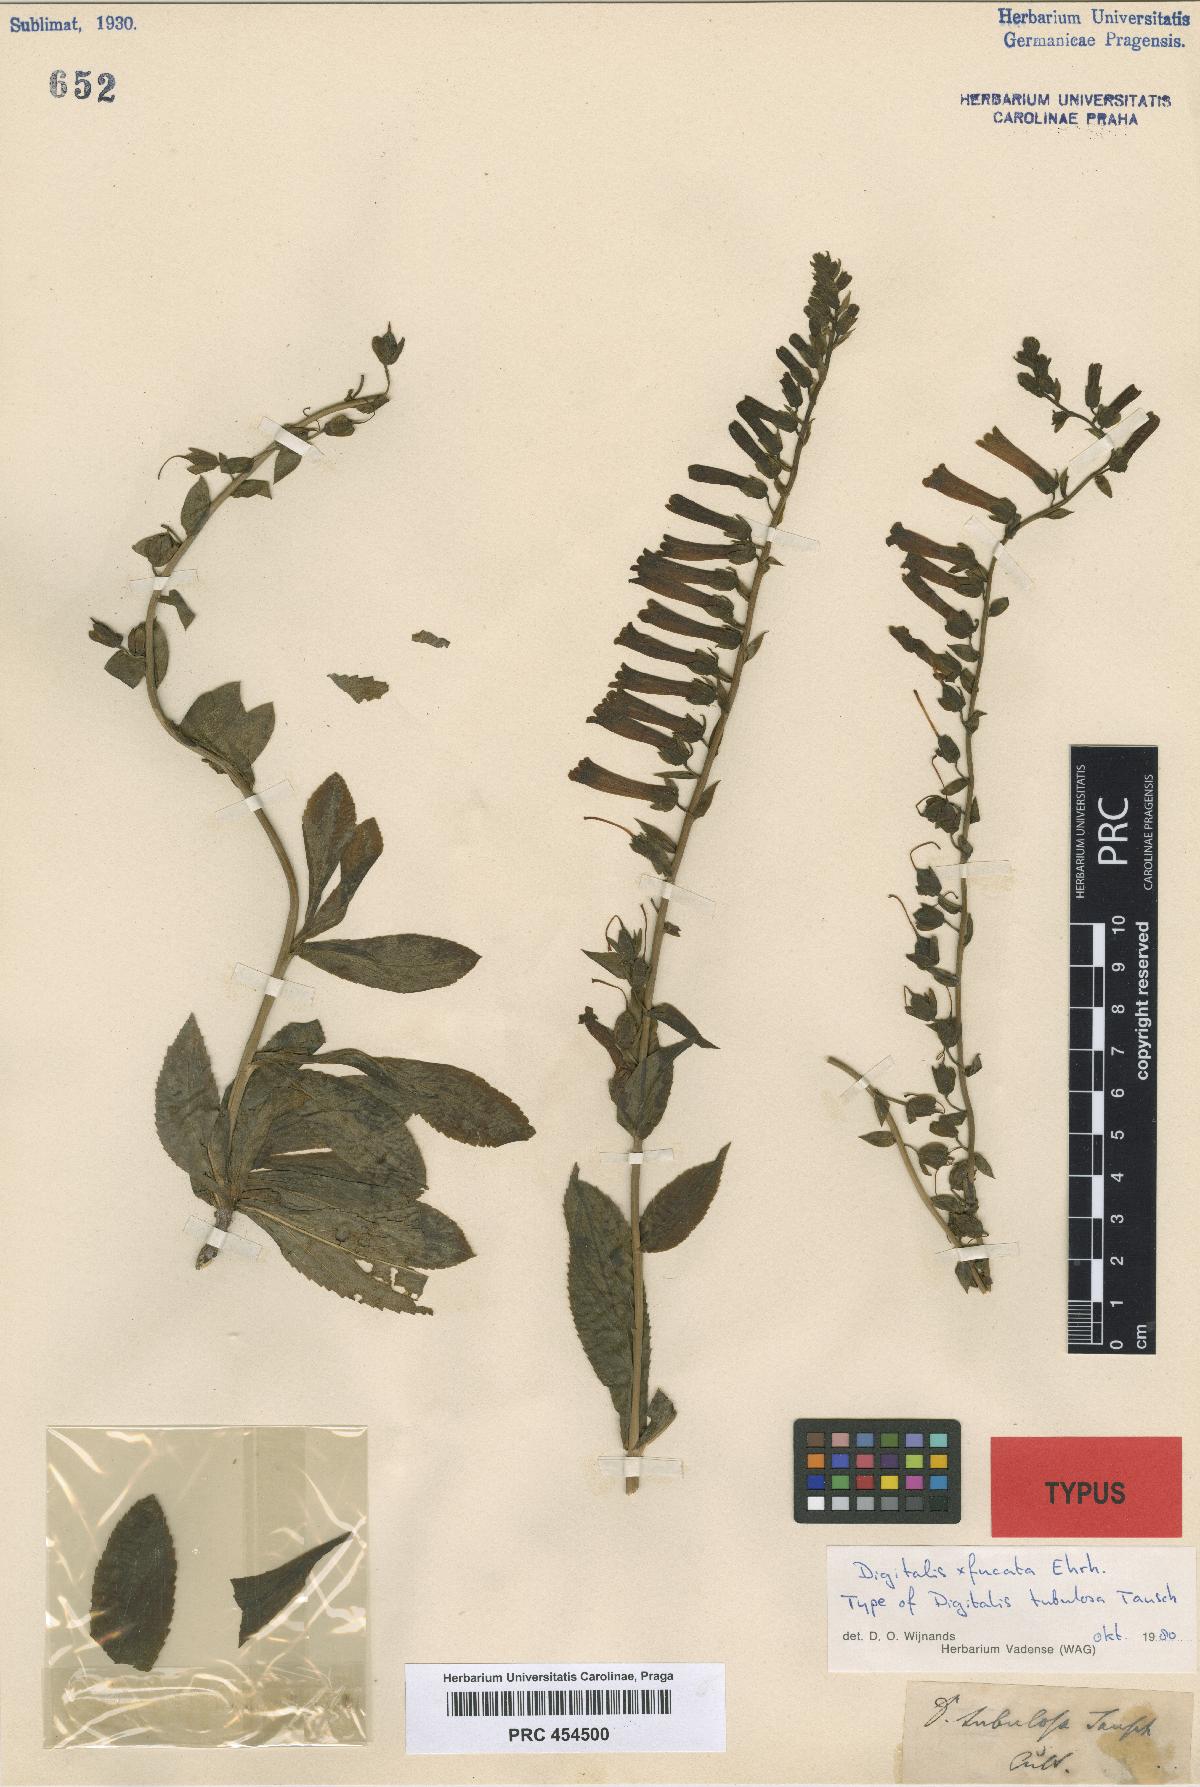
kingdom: Plantae
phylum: Tracheophyta
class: Magnoliopsida
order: Lamiales
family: Plantaginaceae
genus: Digitalis
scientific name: Digitalis tubulosa
